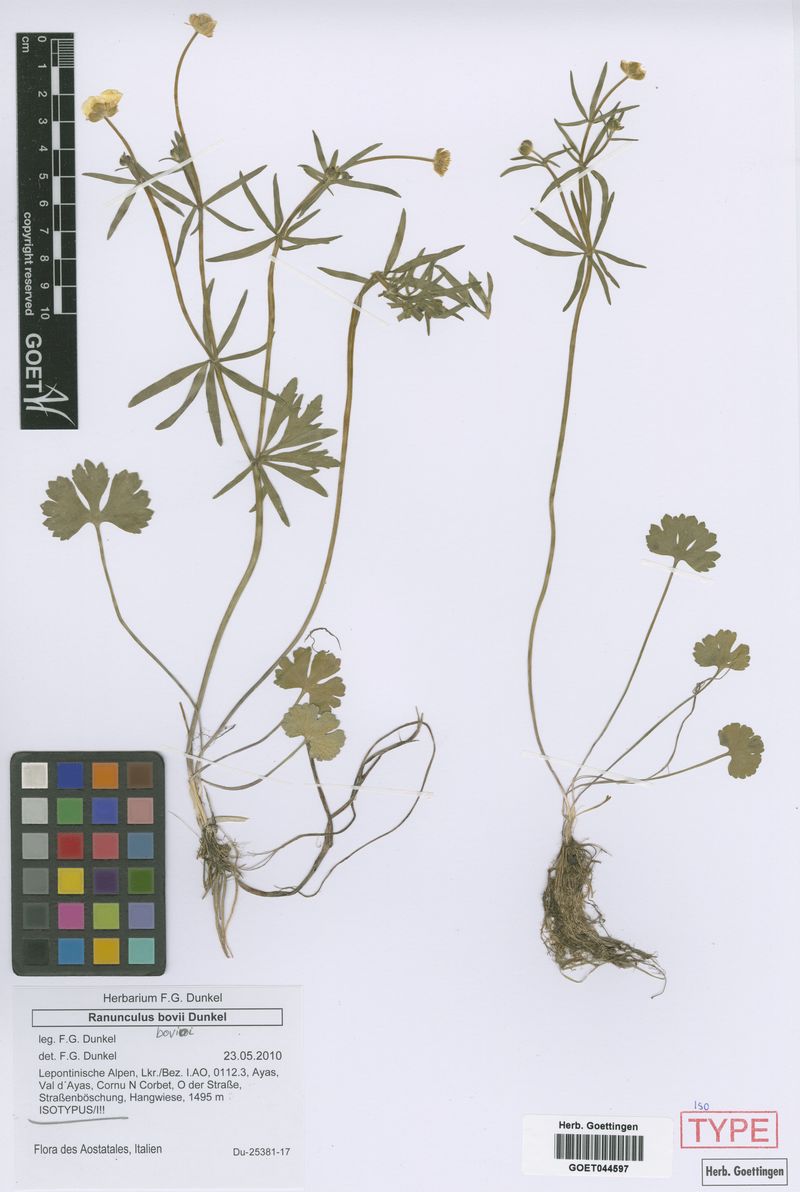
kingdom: Plantae
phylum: Tracheophyta
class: Magnoliopsida
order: Ranunculales
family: Ranunculaceae
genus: Ranunculus
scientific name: Ranunculus bovioi
